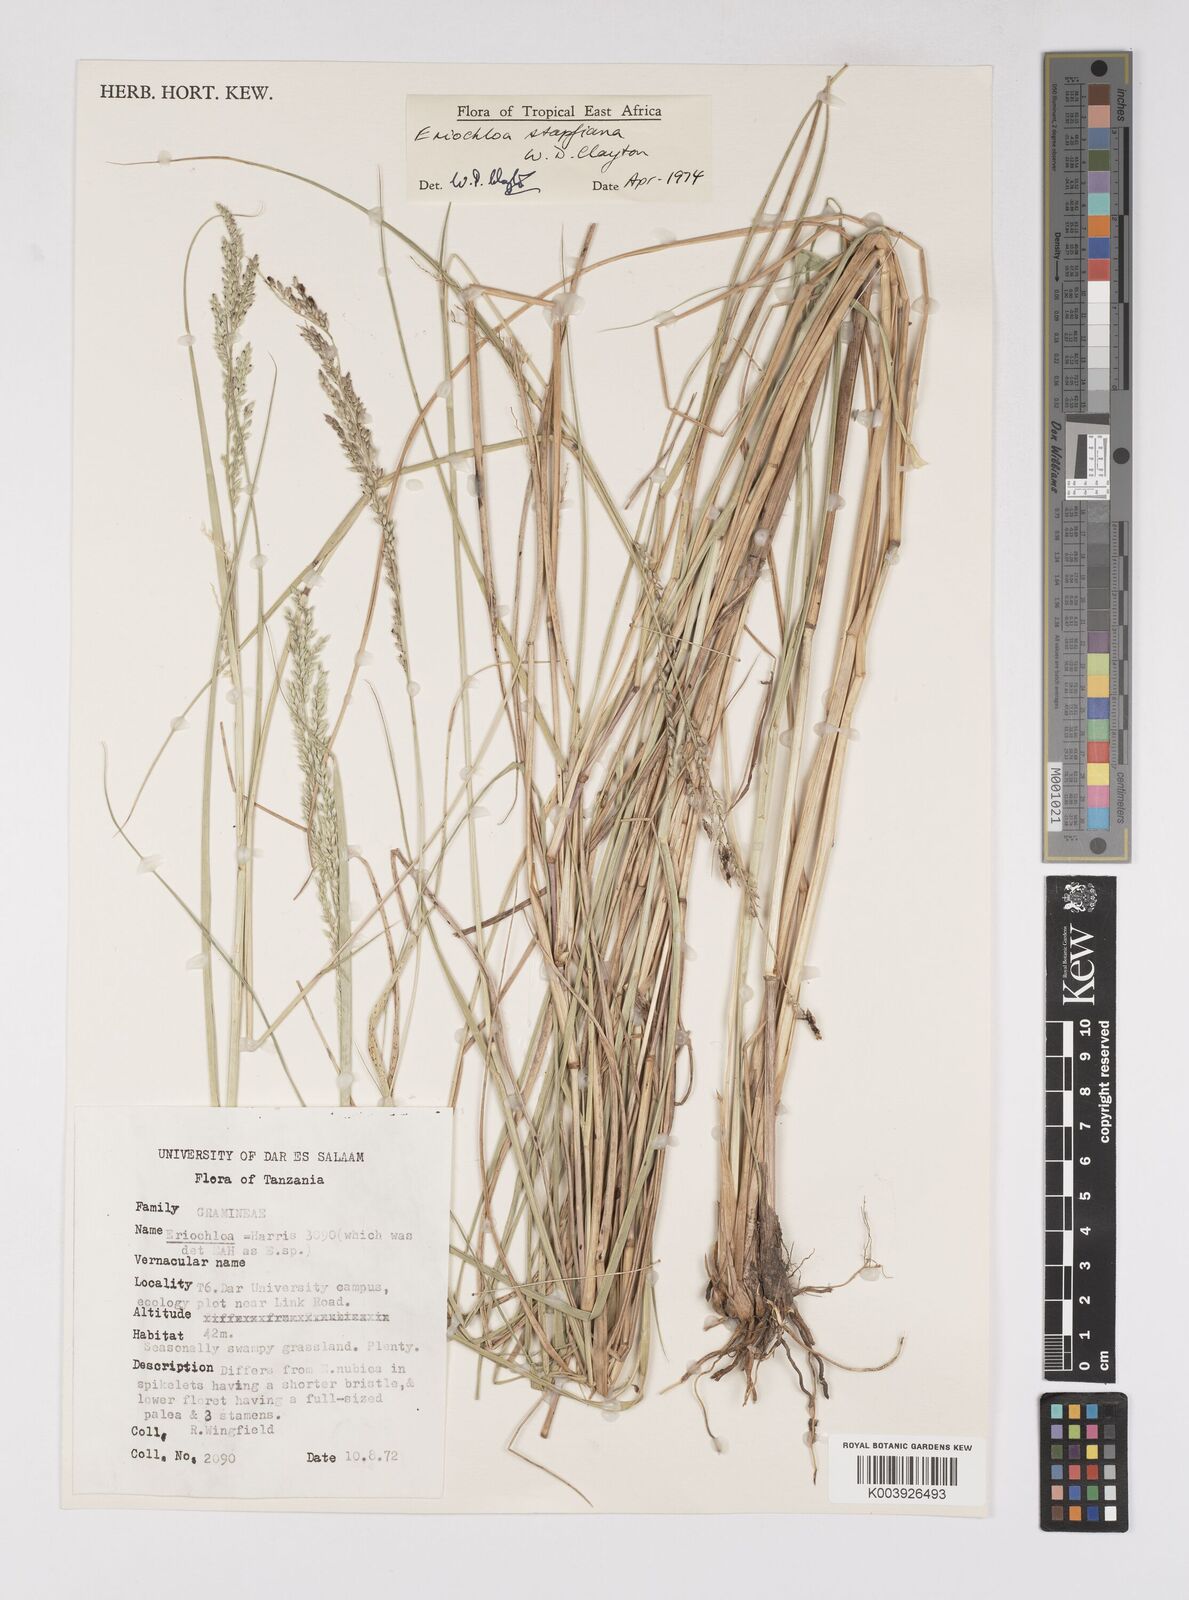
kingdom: Plantae
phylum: Tracheophyta
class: Liliopsida
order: Poales
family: Poaceae
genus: Eriochloa
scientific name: Eriochloa stapfiana
